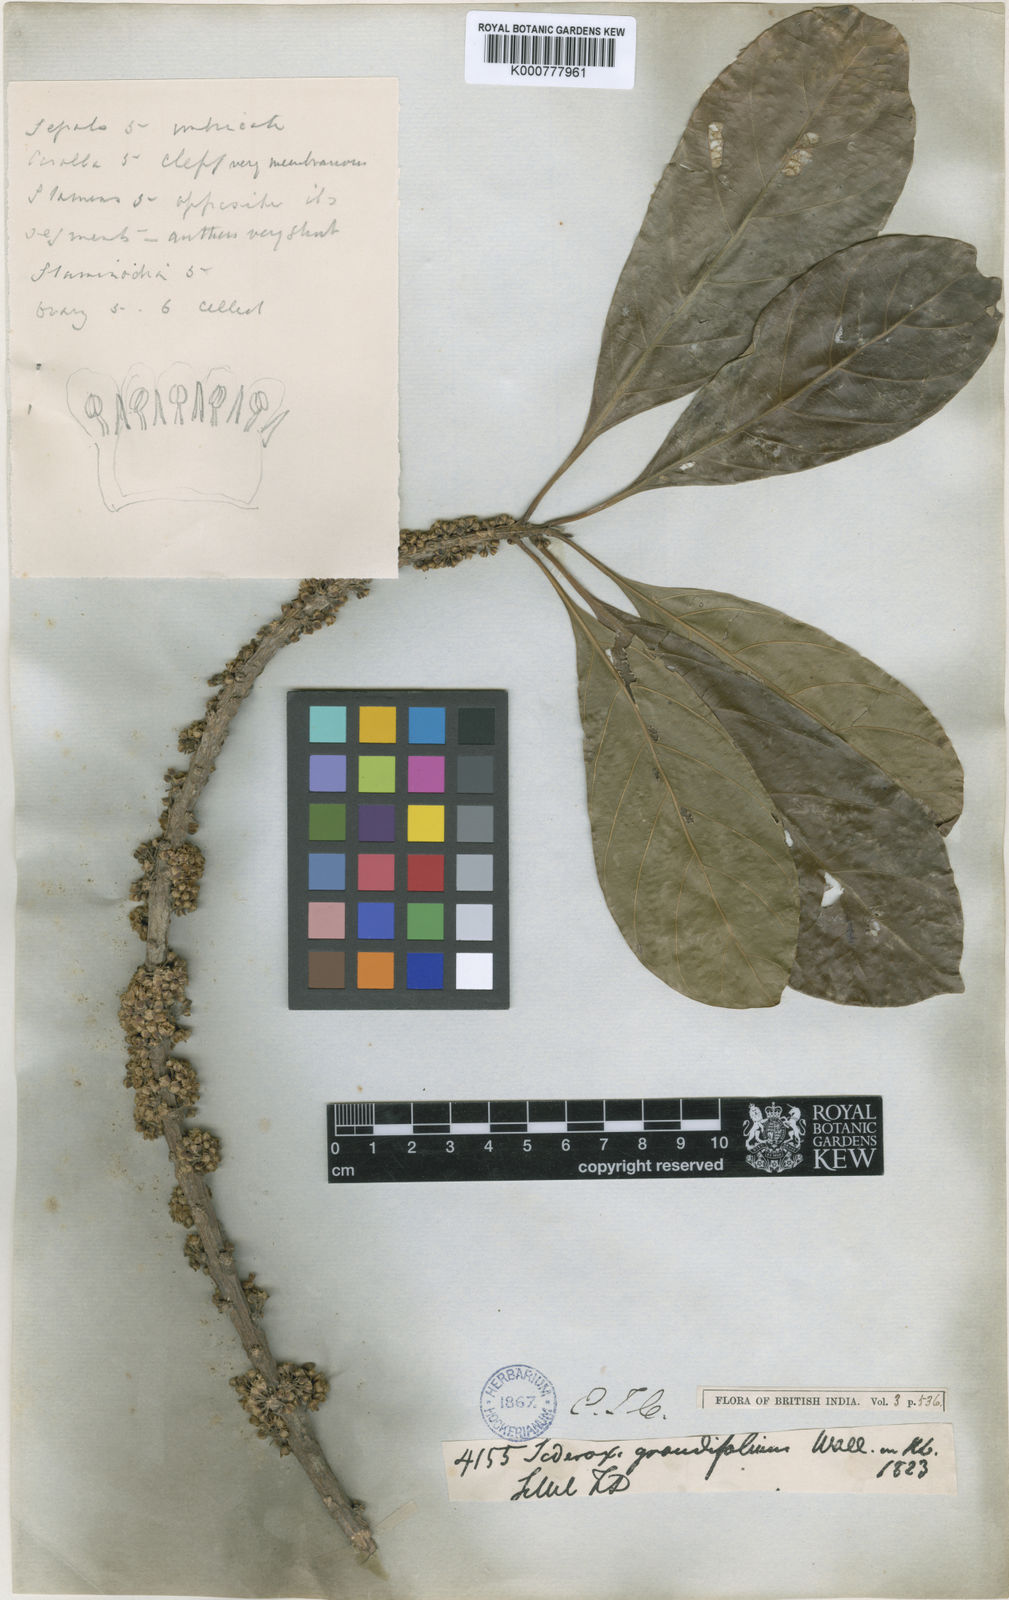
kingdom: Plantae
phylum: Tracheophyta
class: Magnoliopsida
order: Ericales
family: Sapotaceae
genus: Planchonella
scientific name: Planchonella grandifolia
